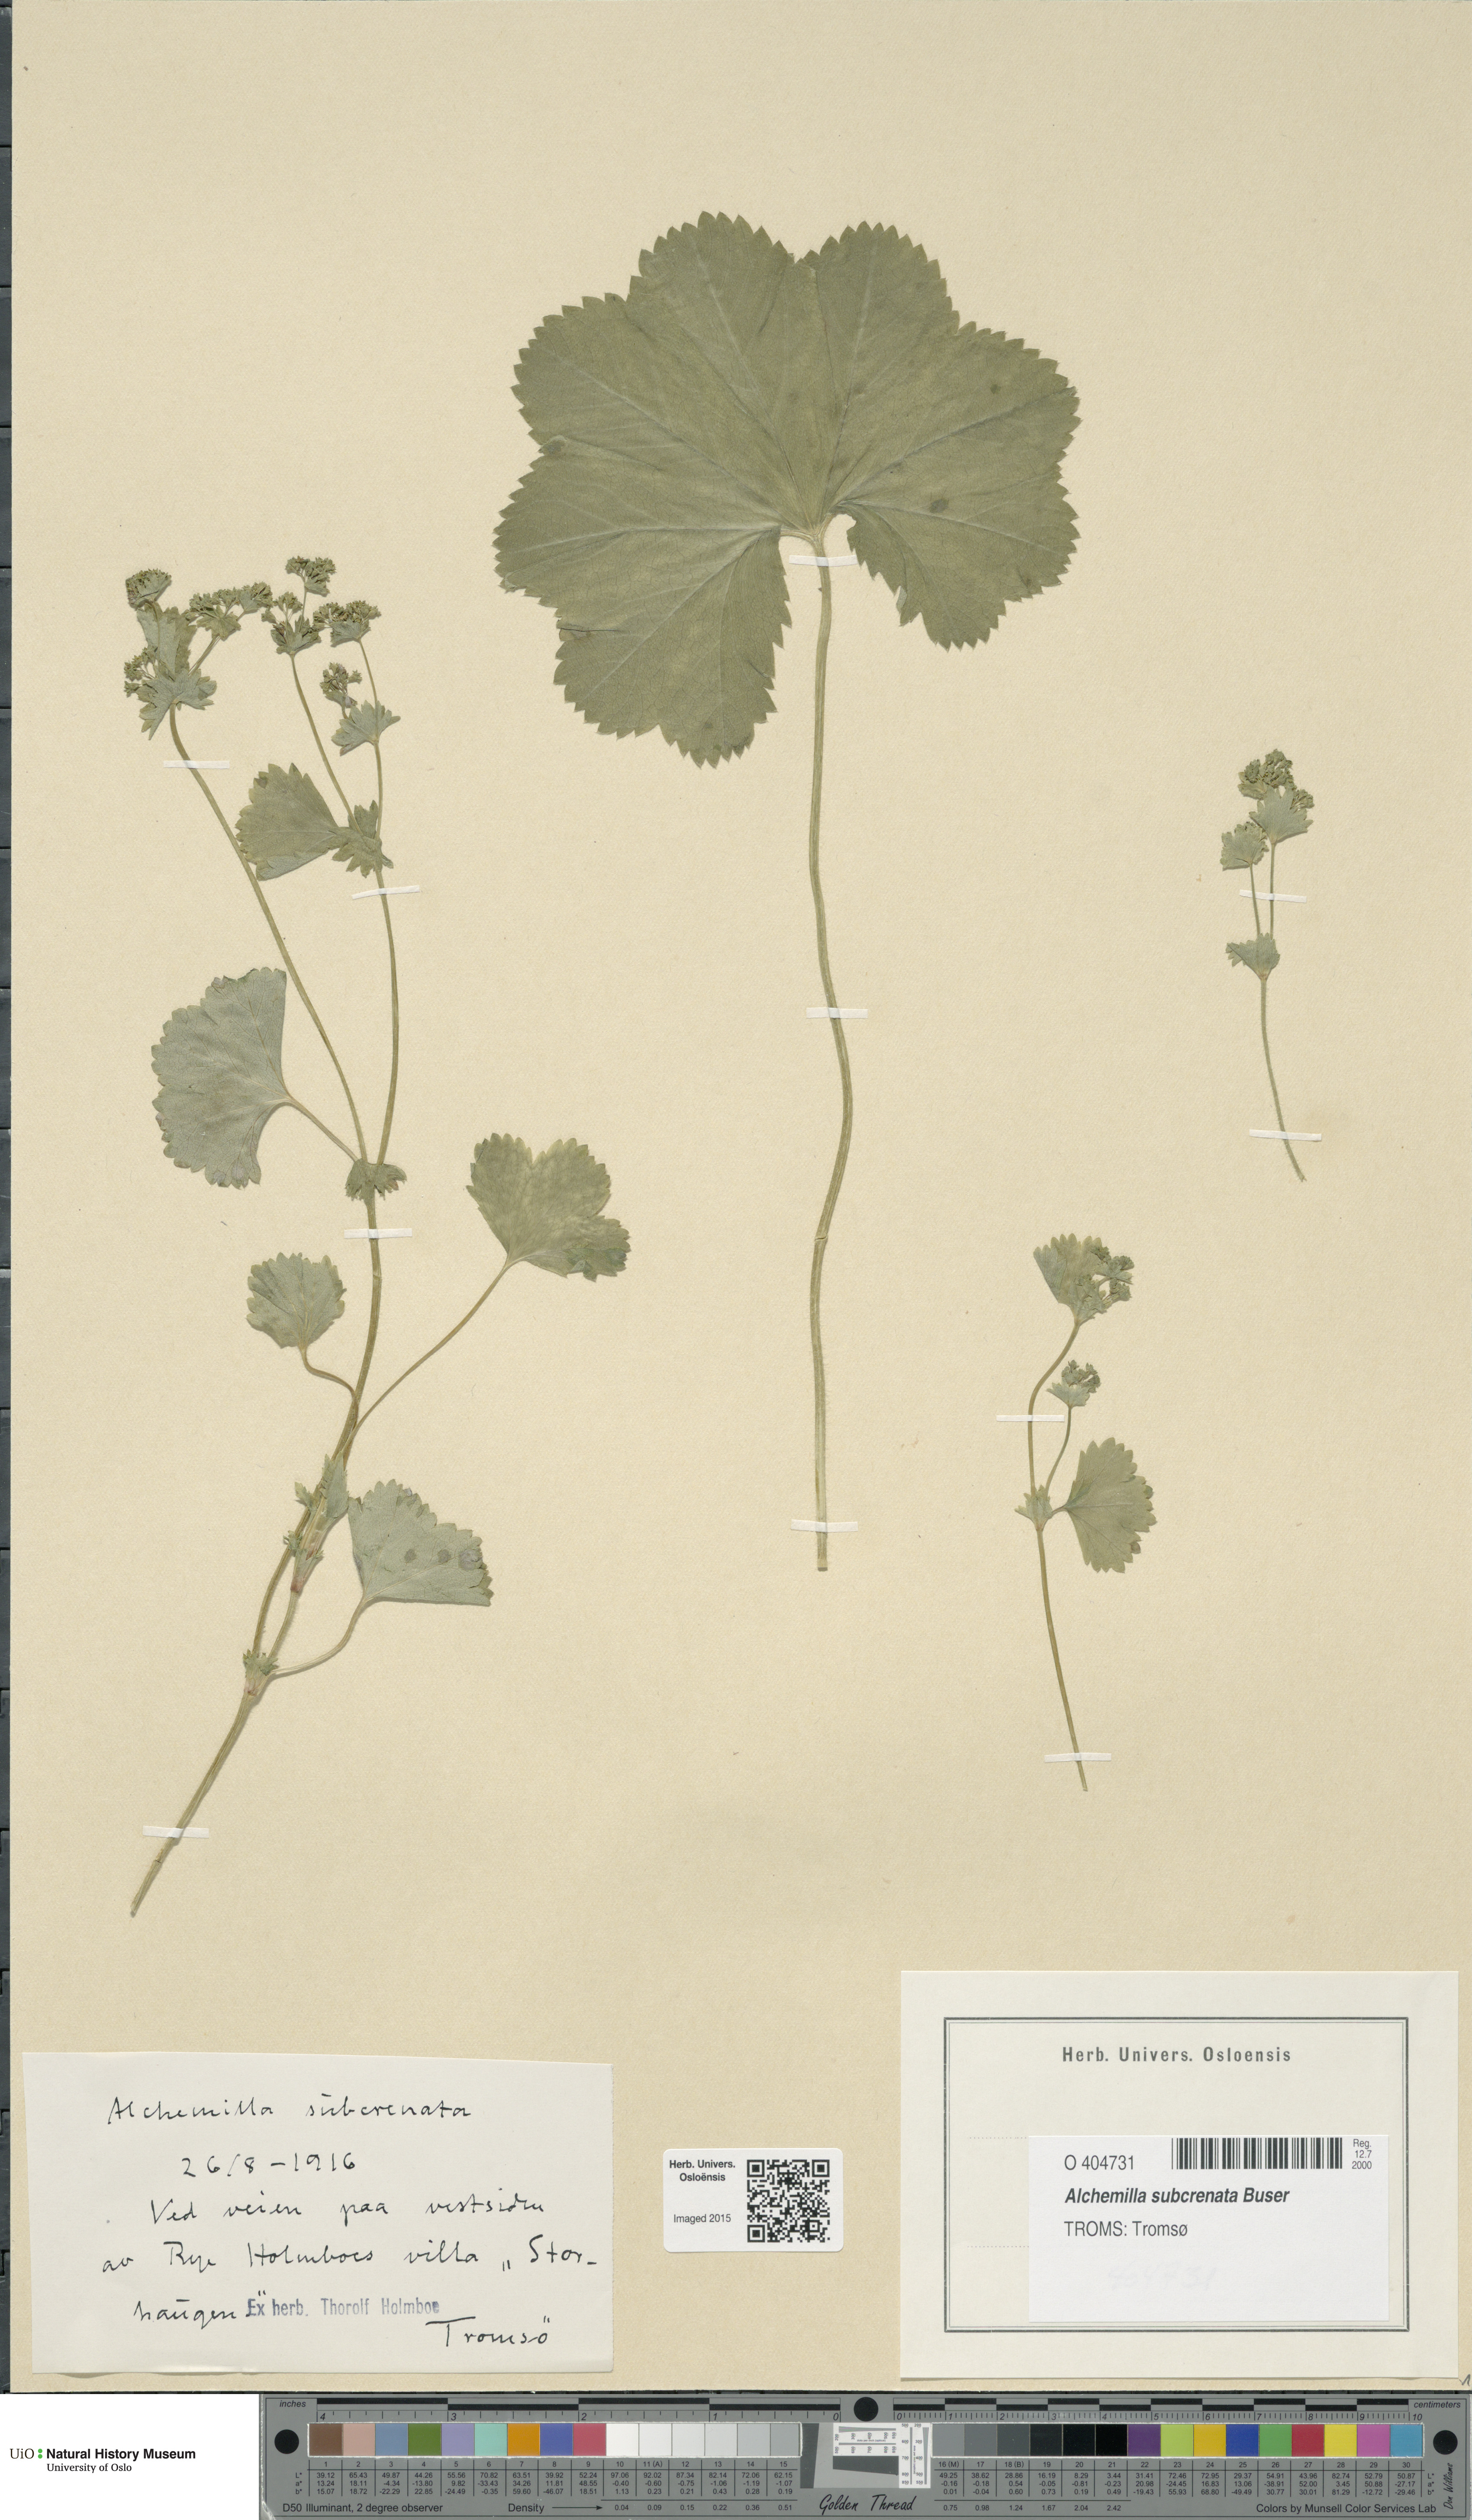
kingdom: Plantae
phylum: Tracheophyta
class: Magnoliopsida
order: Rosales
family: Rosaceae
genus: Alchemilla
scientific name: Alchemilla subcrenata
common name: Broadtooth lady's mantle
